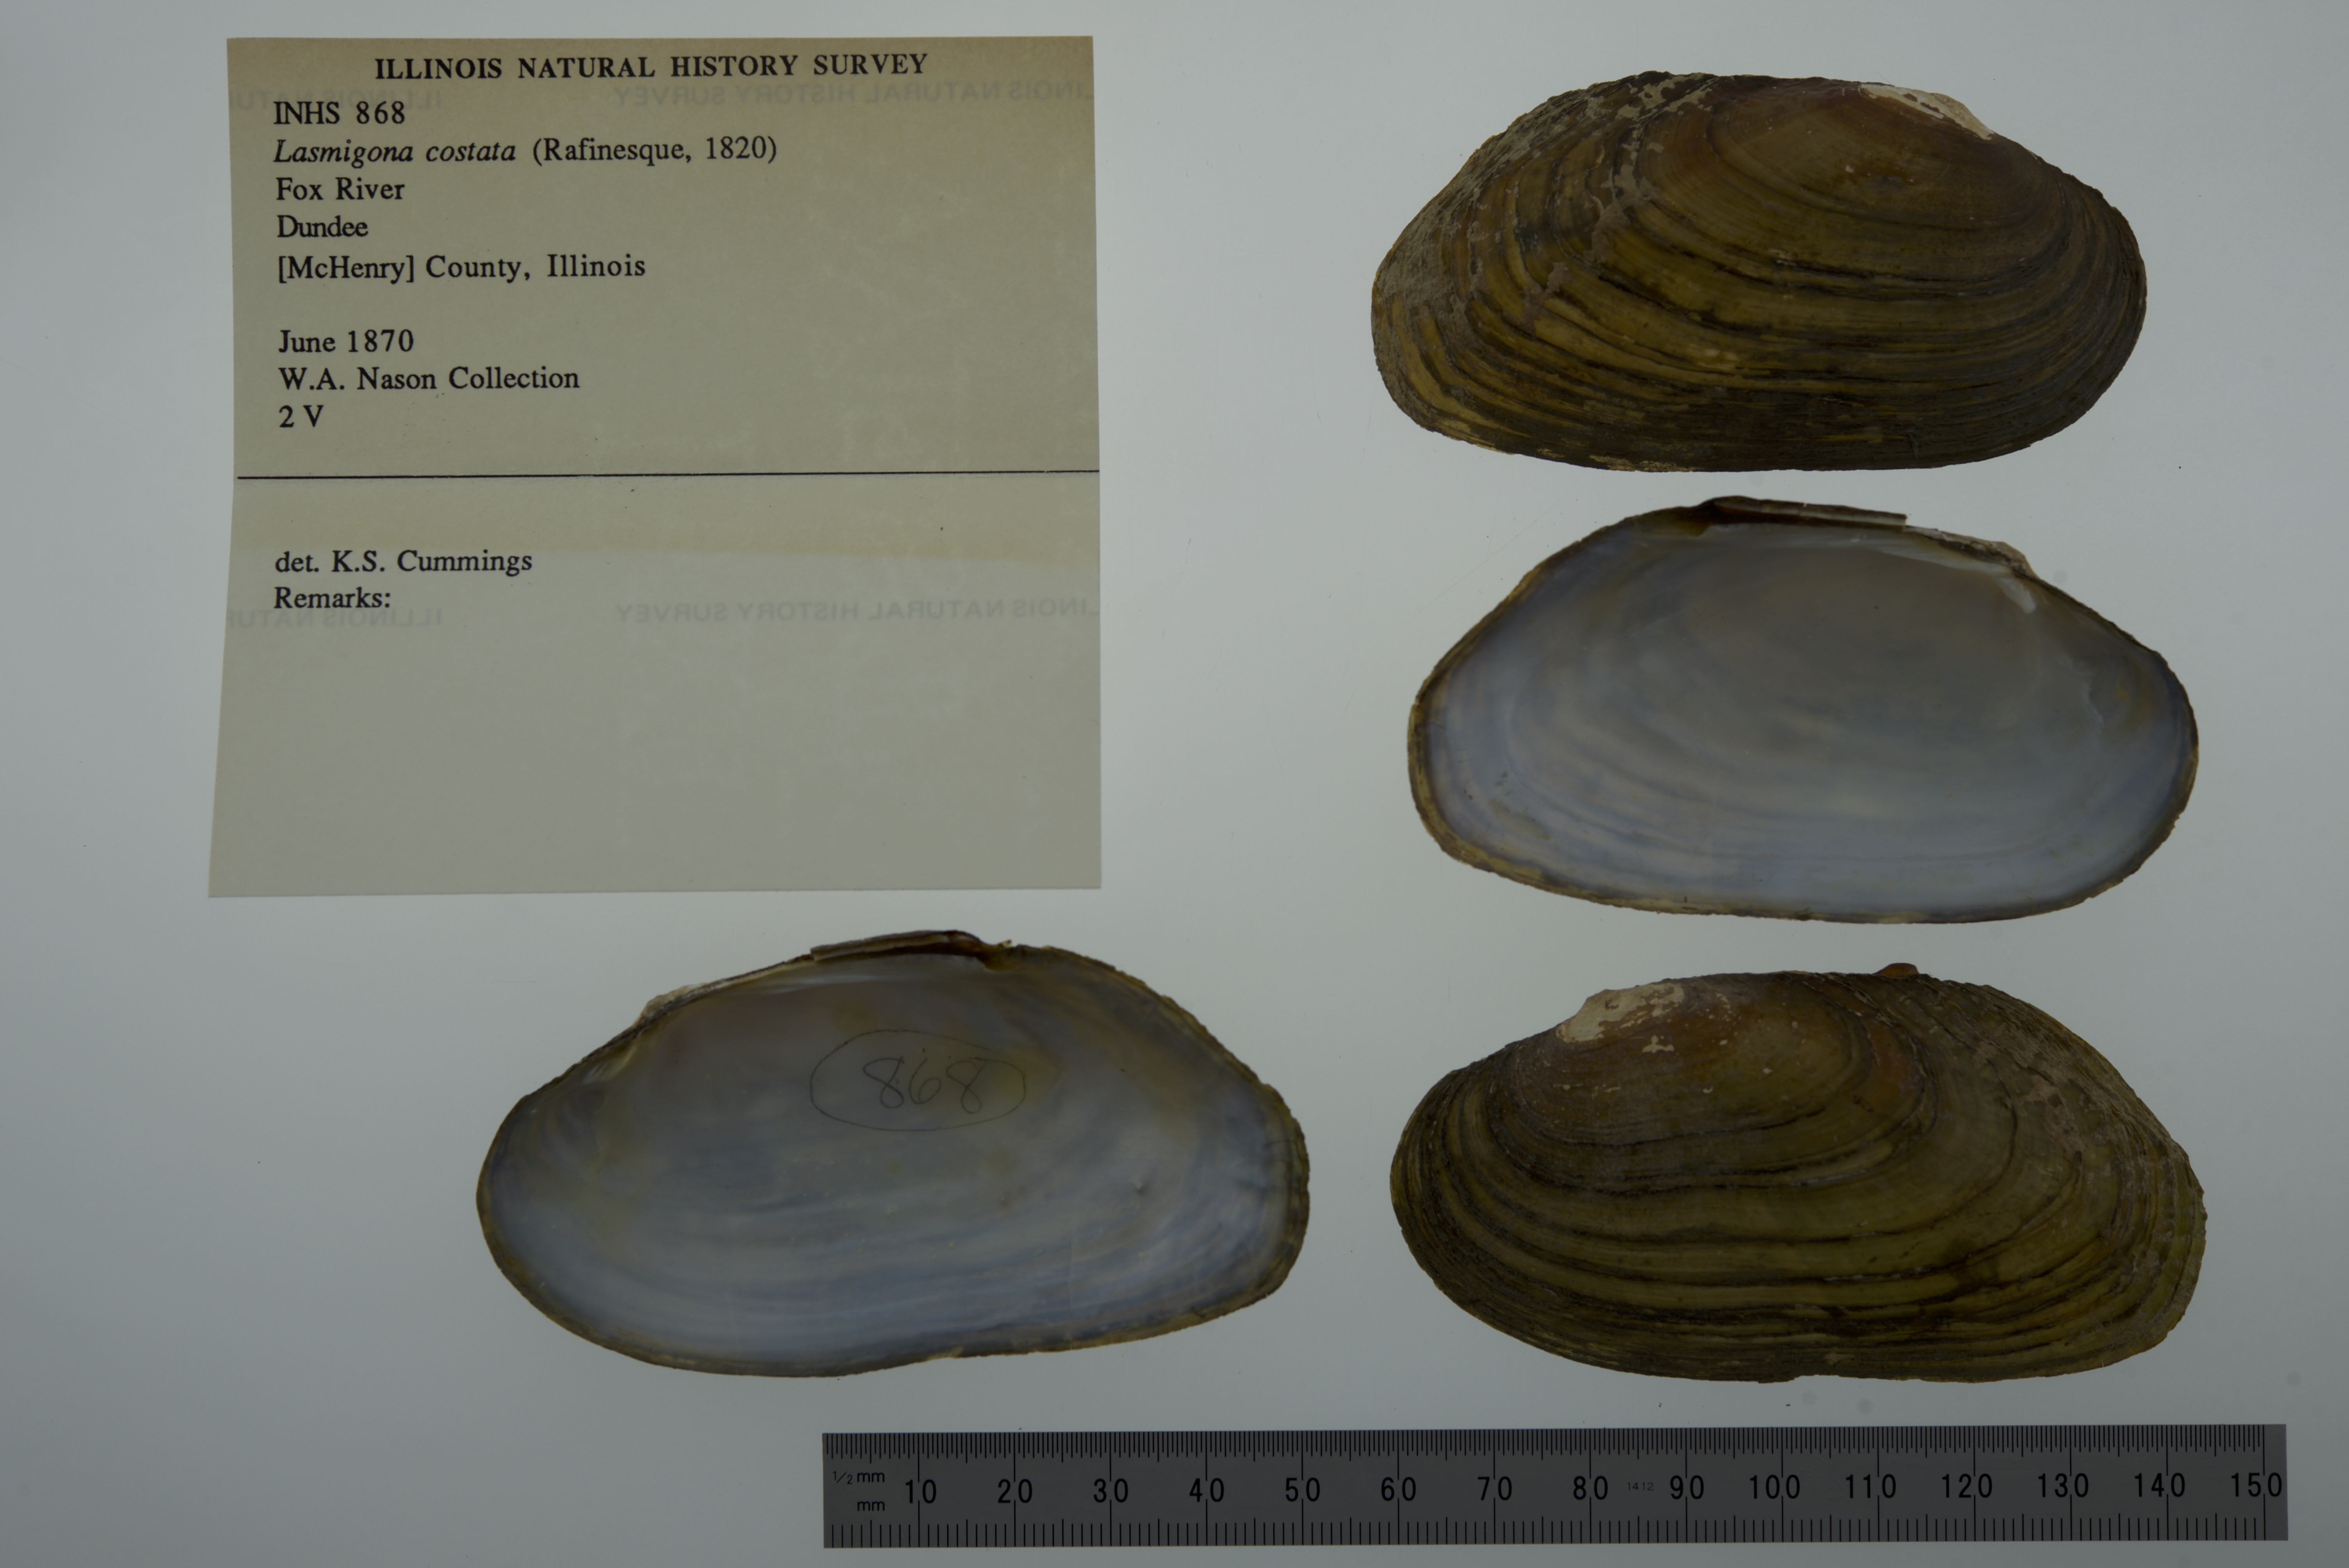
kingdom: Animalia
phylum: Mollusca
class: Bivalvia
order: Unionida
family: Unionidae
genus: Lasmigona
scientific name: Lasmigona costata
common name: Flutedshell
